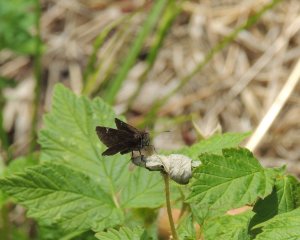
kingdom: Animalia
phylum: Arthropoda
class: Insecta
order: Lepidoptera
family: Hesperiidae
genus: Mastor
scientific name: Mastor vialis
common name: Common Roadside-Skipper
